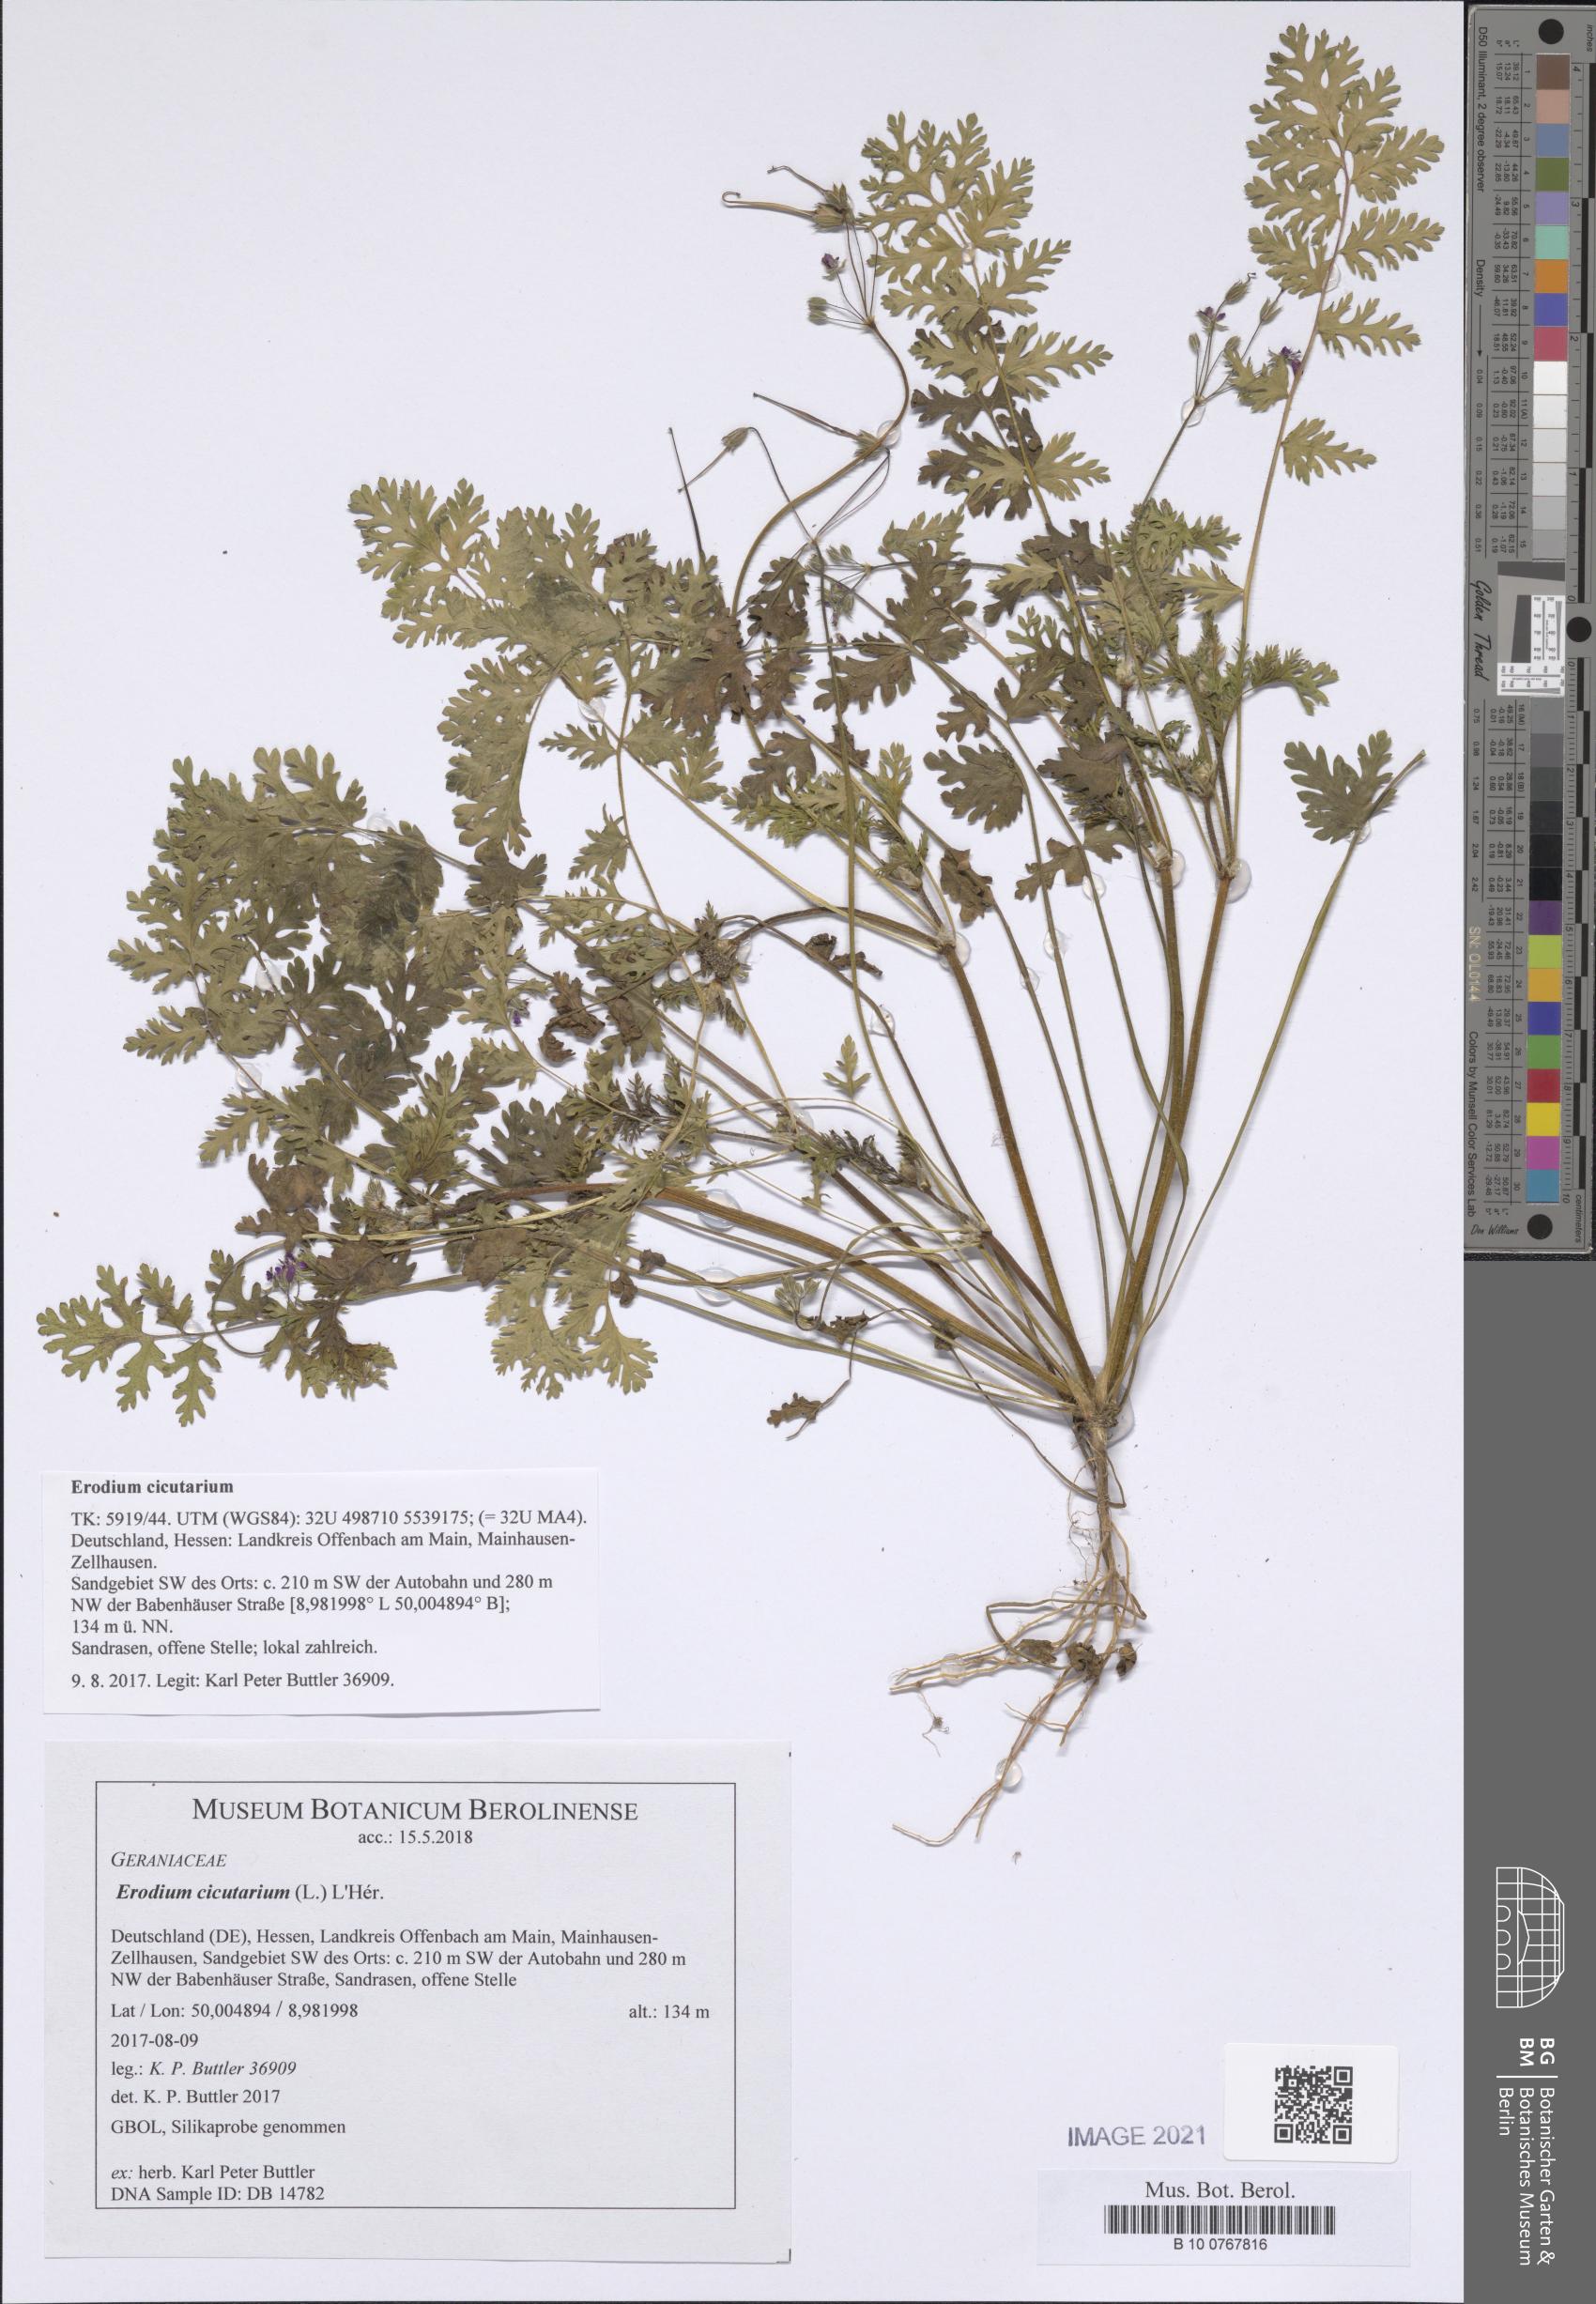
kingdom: Plantae
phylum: Tracheophyta
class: Magnoliopsida
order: Geraniales
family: Geraniaceae
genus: Erodium
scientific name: Erodium cicutarium
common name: Common stork's-bill
